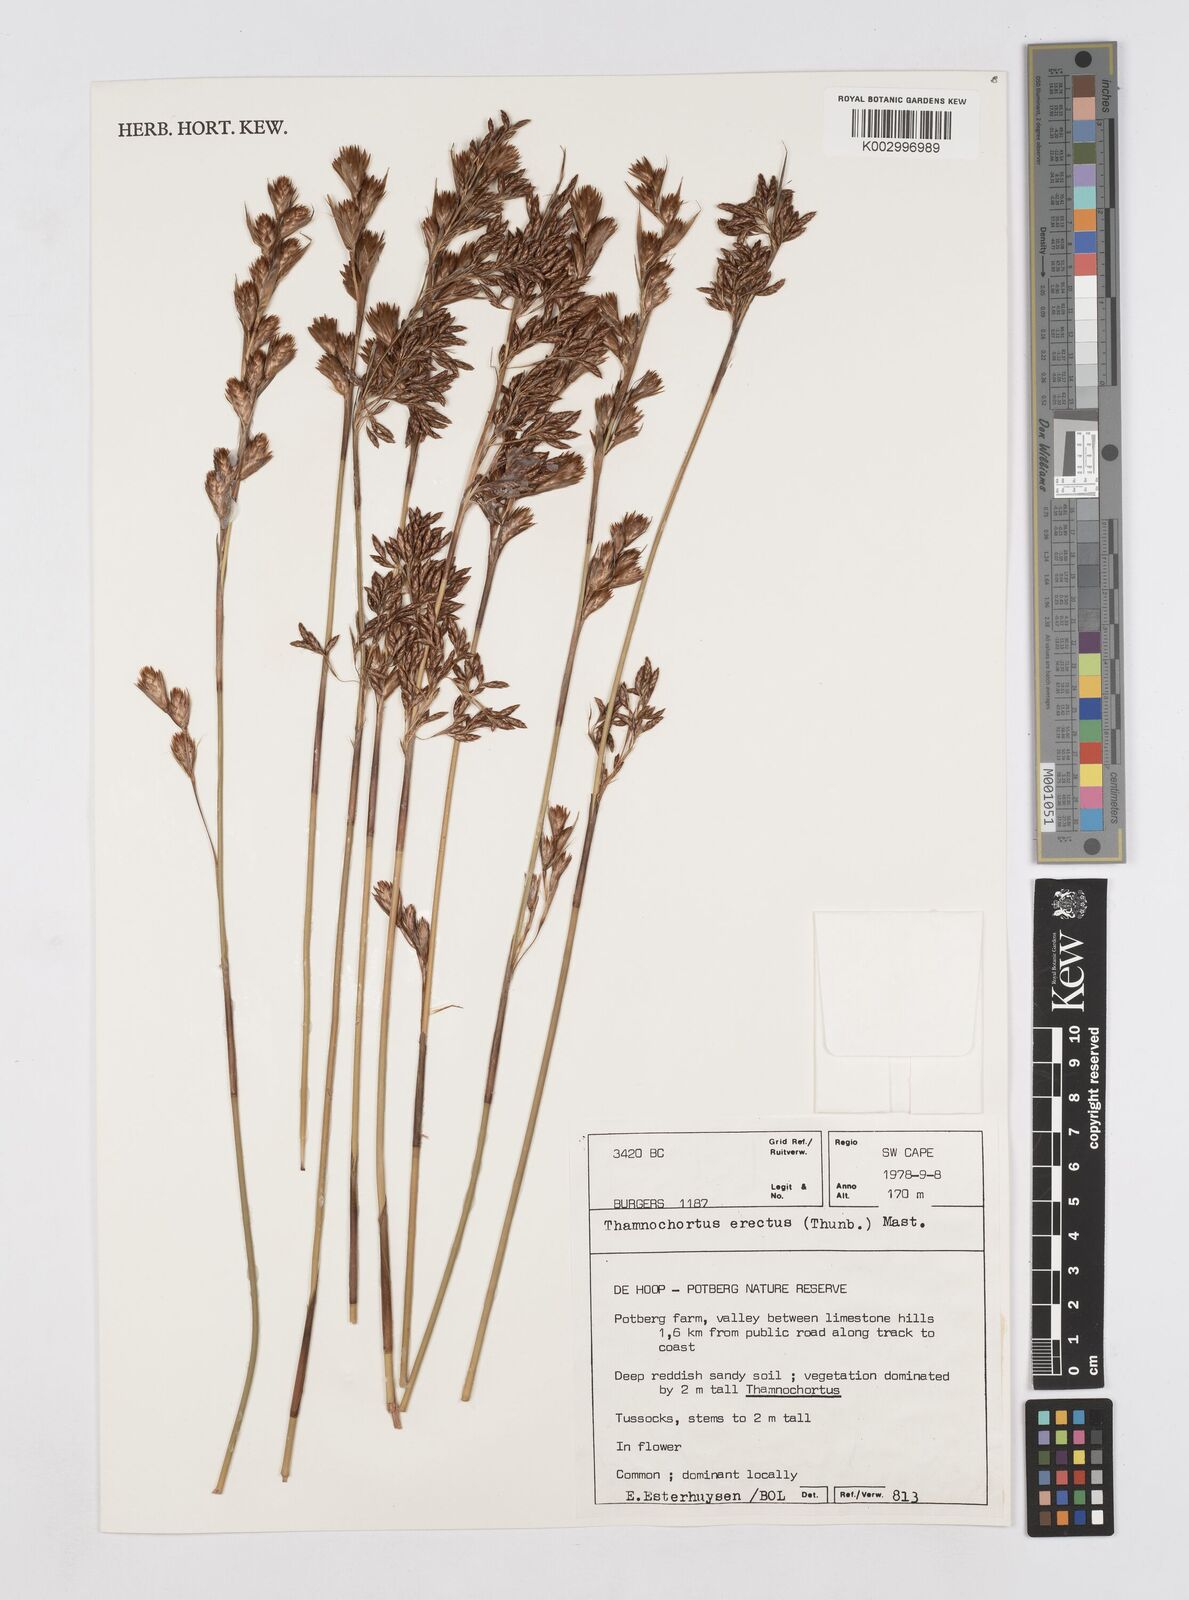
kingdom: Plantae
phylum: Tracheophyta
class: Liliopsida
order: Poales
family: Restionaceae
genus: Thamnochortus
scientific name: Thamnochortus erectus
